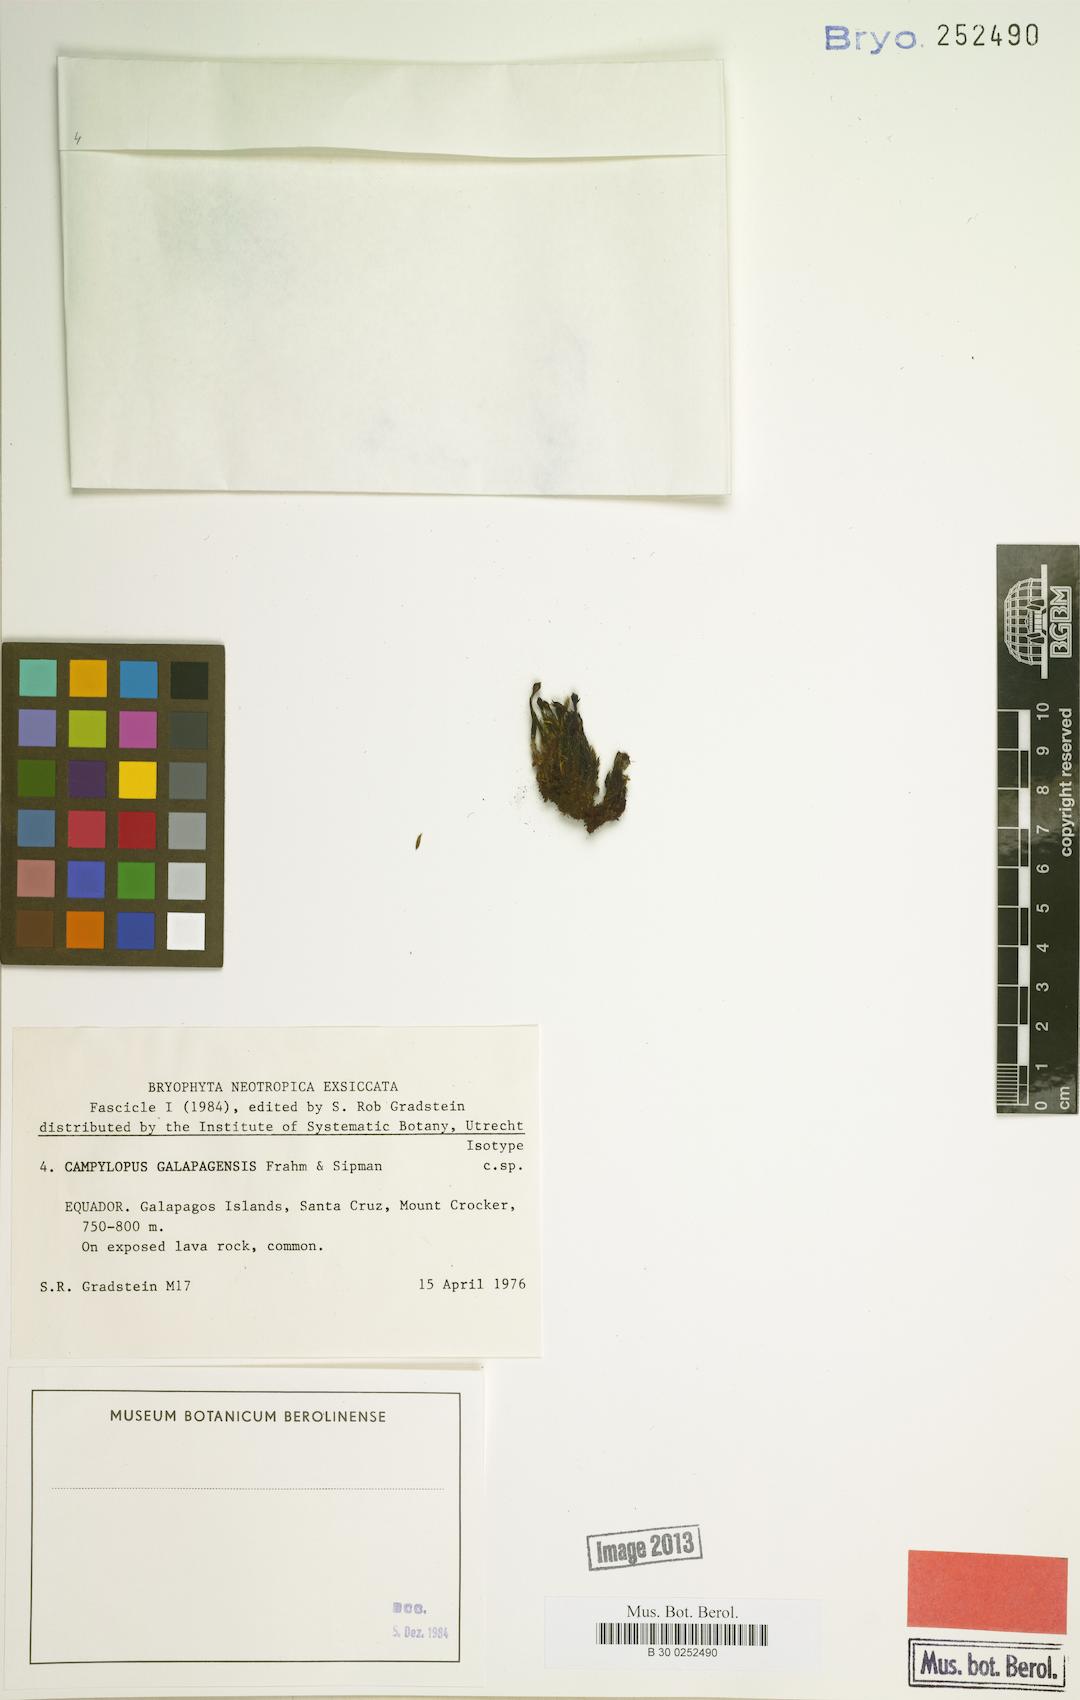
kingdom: Plantae
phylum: Bryophyta
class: Bryopsida
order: Dicranales
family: Leucobryaceae
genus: Campylopus
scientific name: Campylopus pilifer
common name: Campylopus moss
